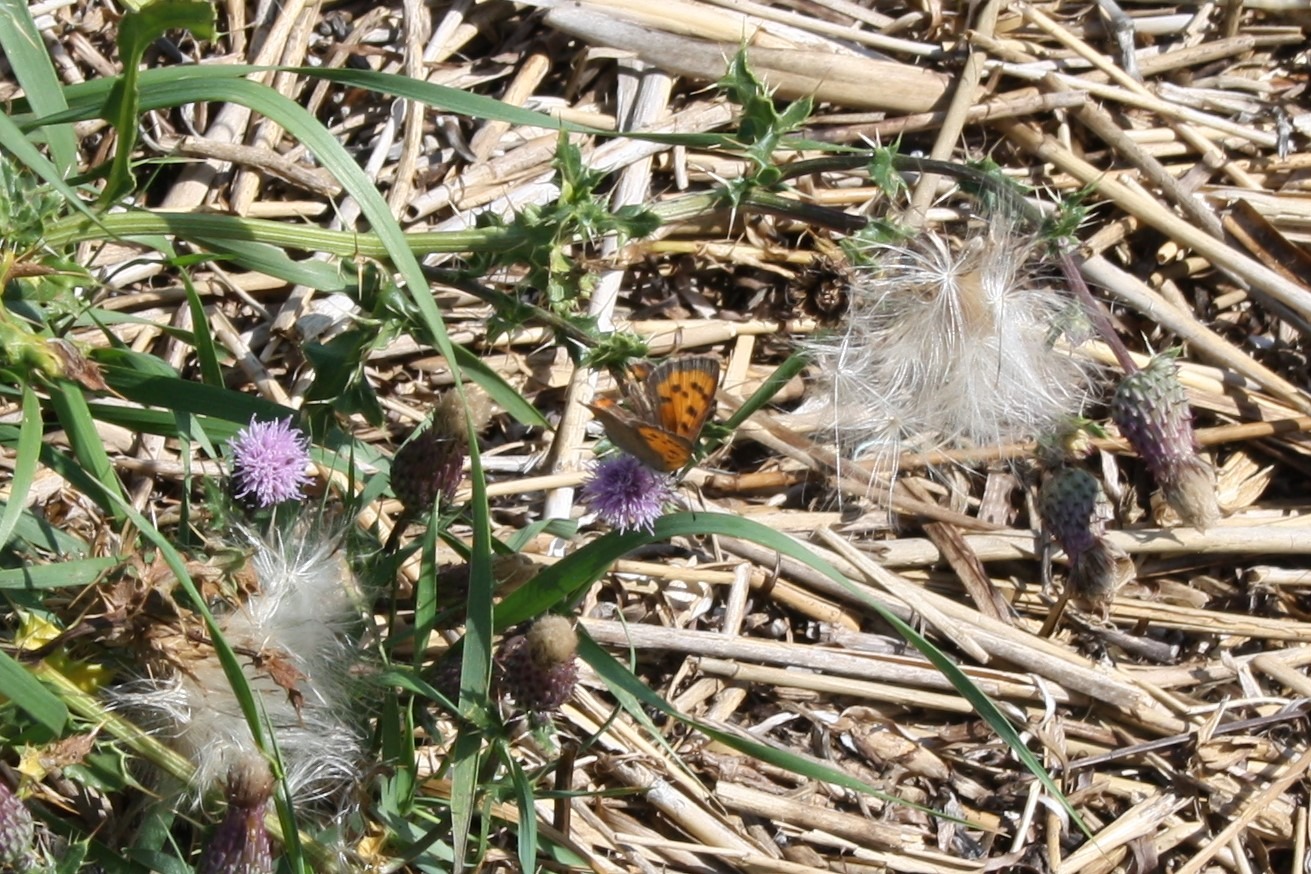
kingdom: Animalia
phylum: Arthropoda
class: Insecta
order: Lepidoptera
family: Lycaenidae
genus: Lycaena
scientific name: Lycaena phlaeas
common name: Lille ildfugl
